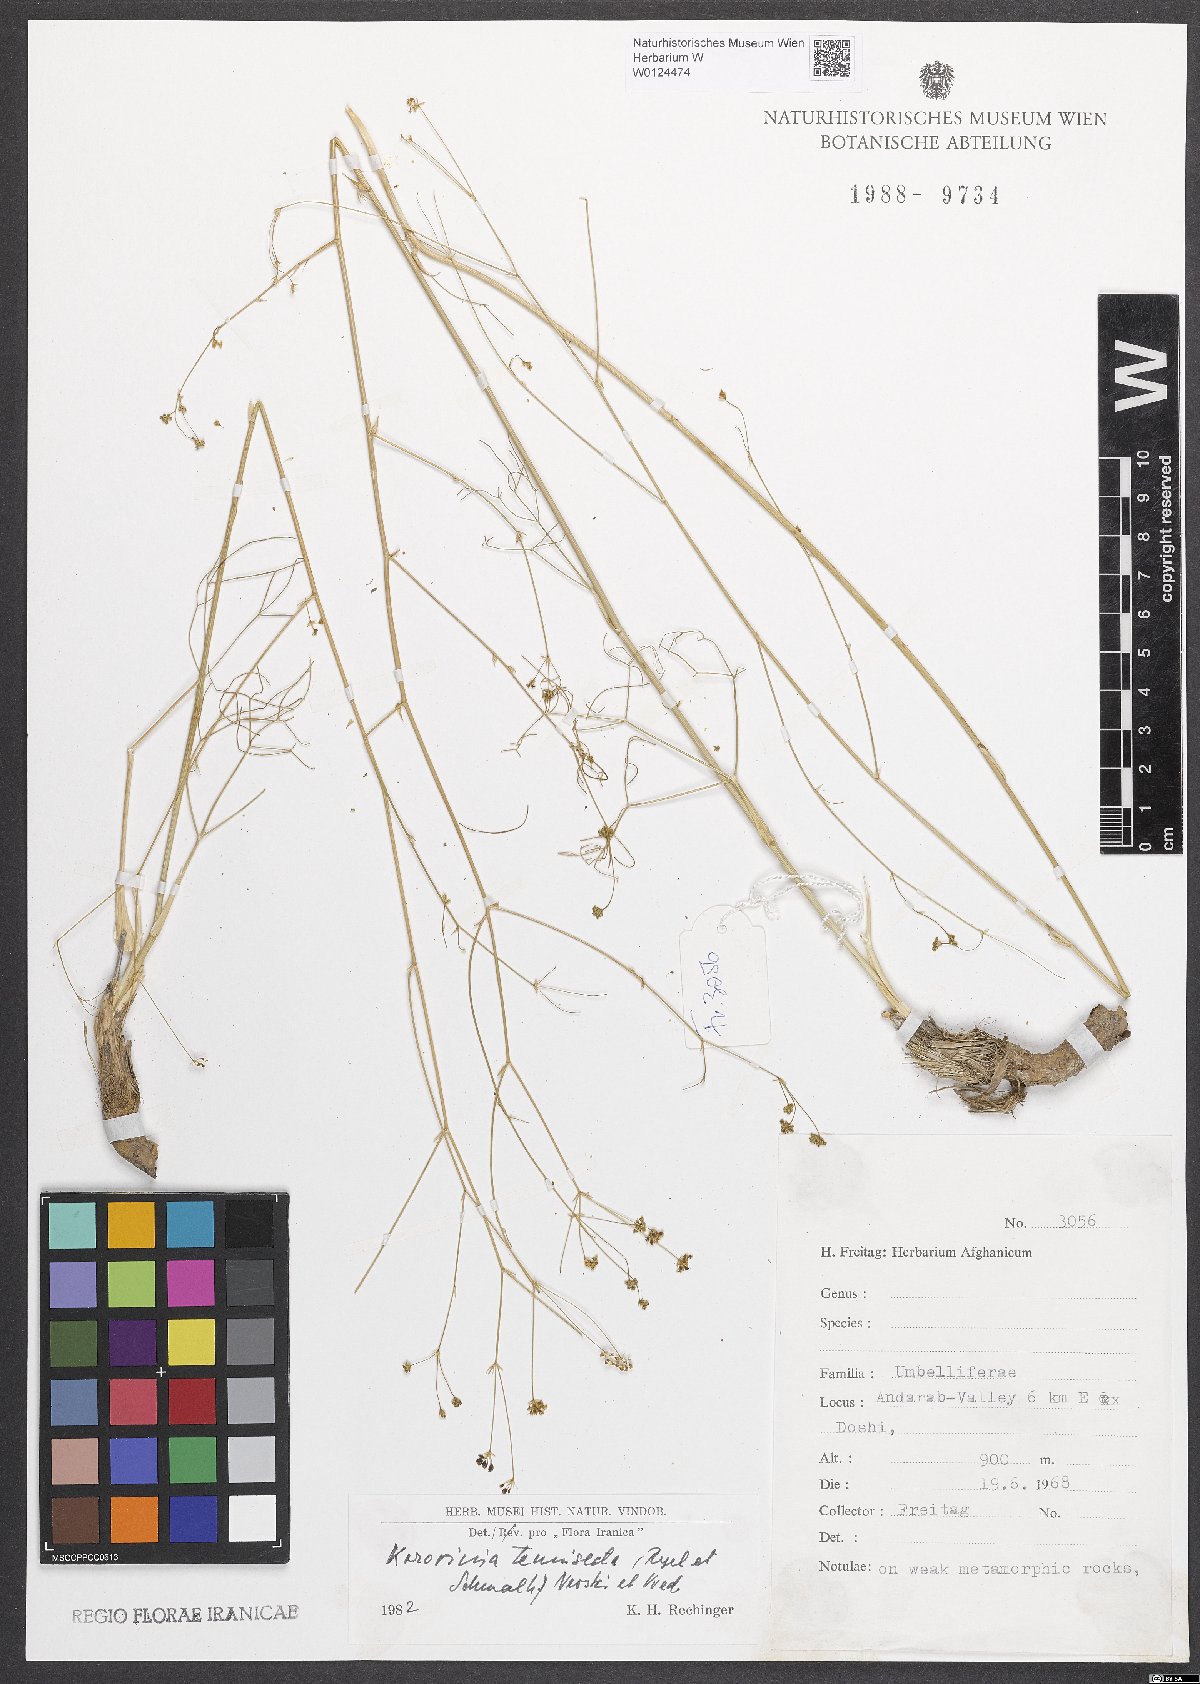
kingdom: Plantae
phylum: Tracheophyta
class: Magnoliopsida
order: Apiales
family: Apiaceae
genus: Galagania
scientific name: Galagania tenuisecta
